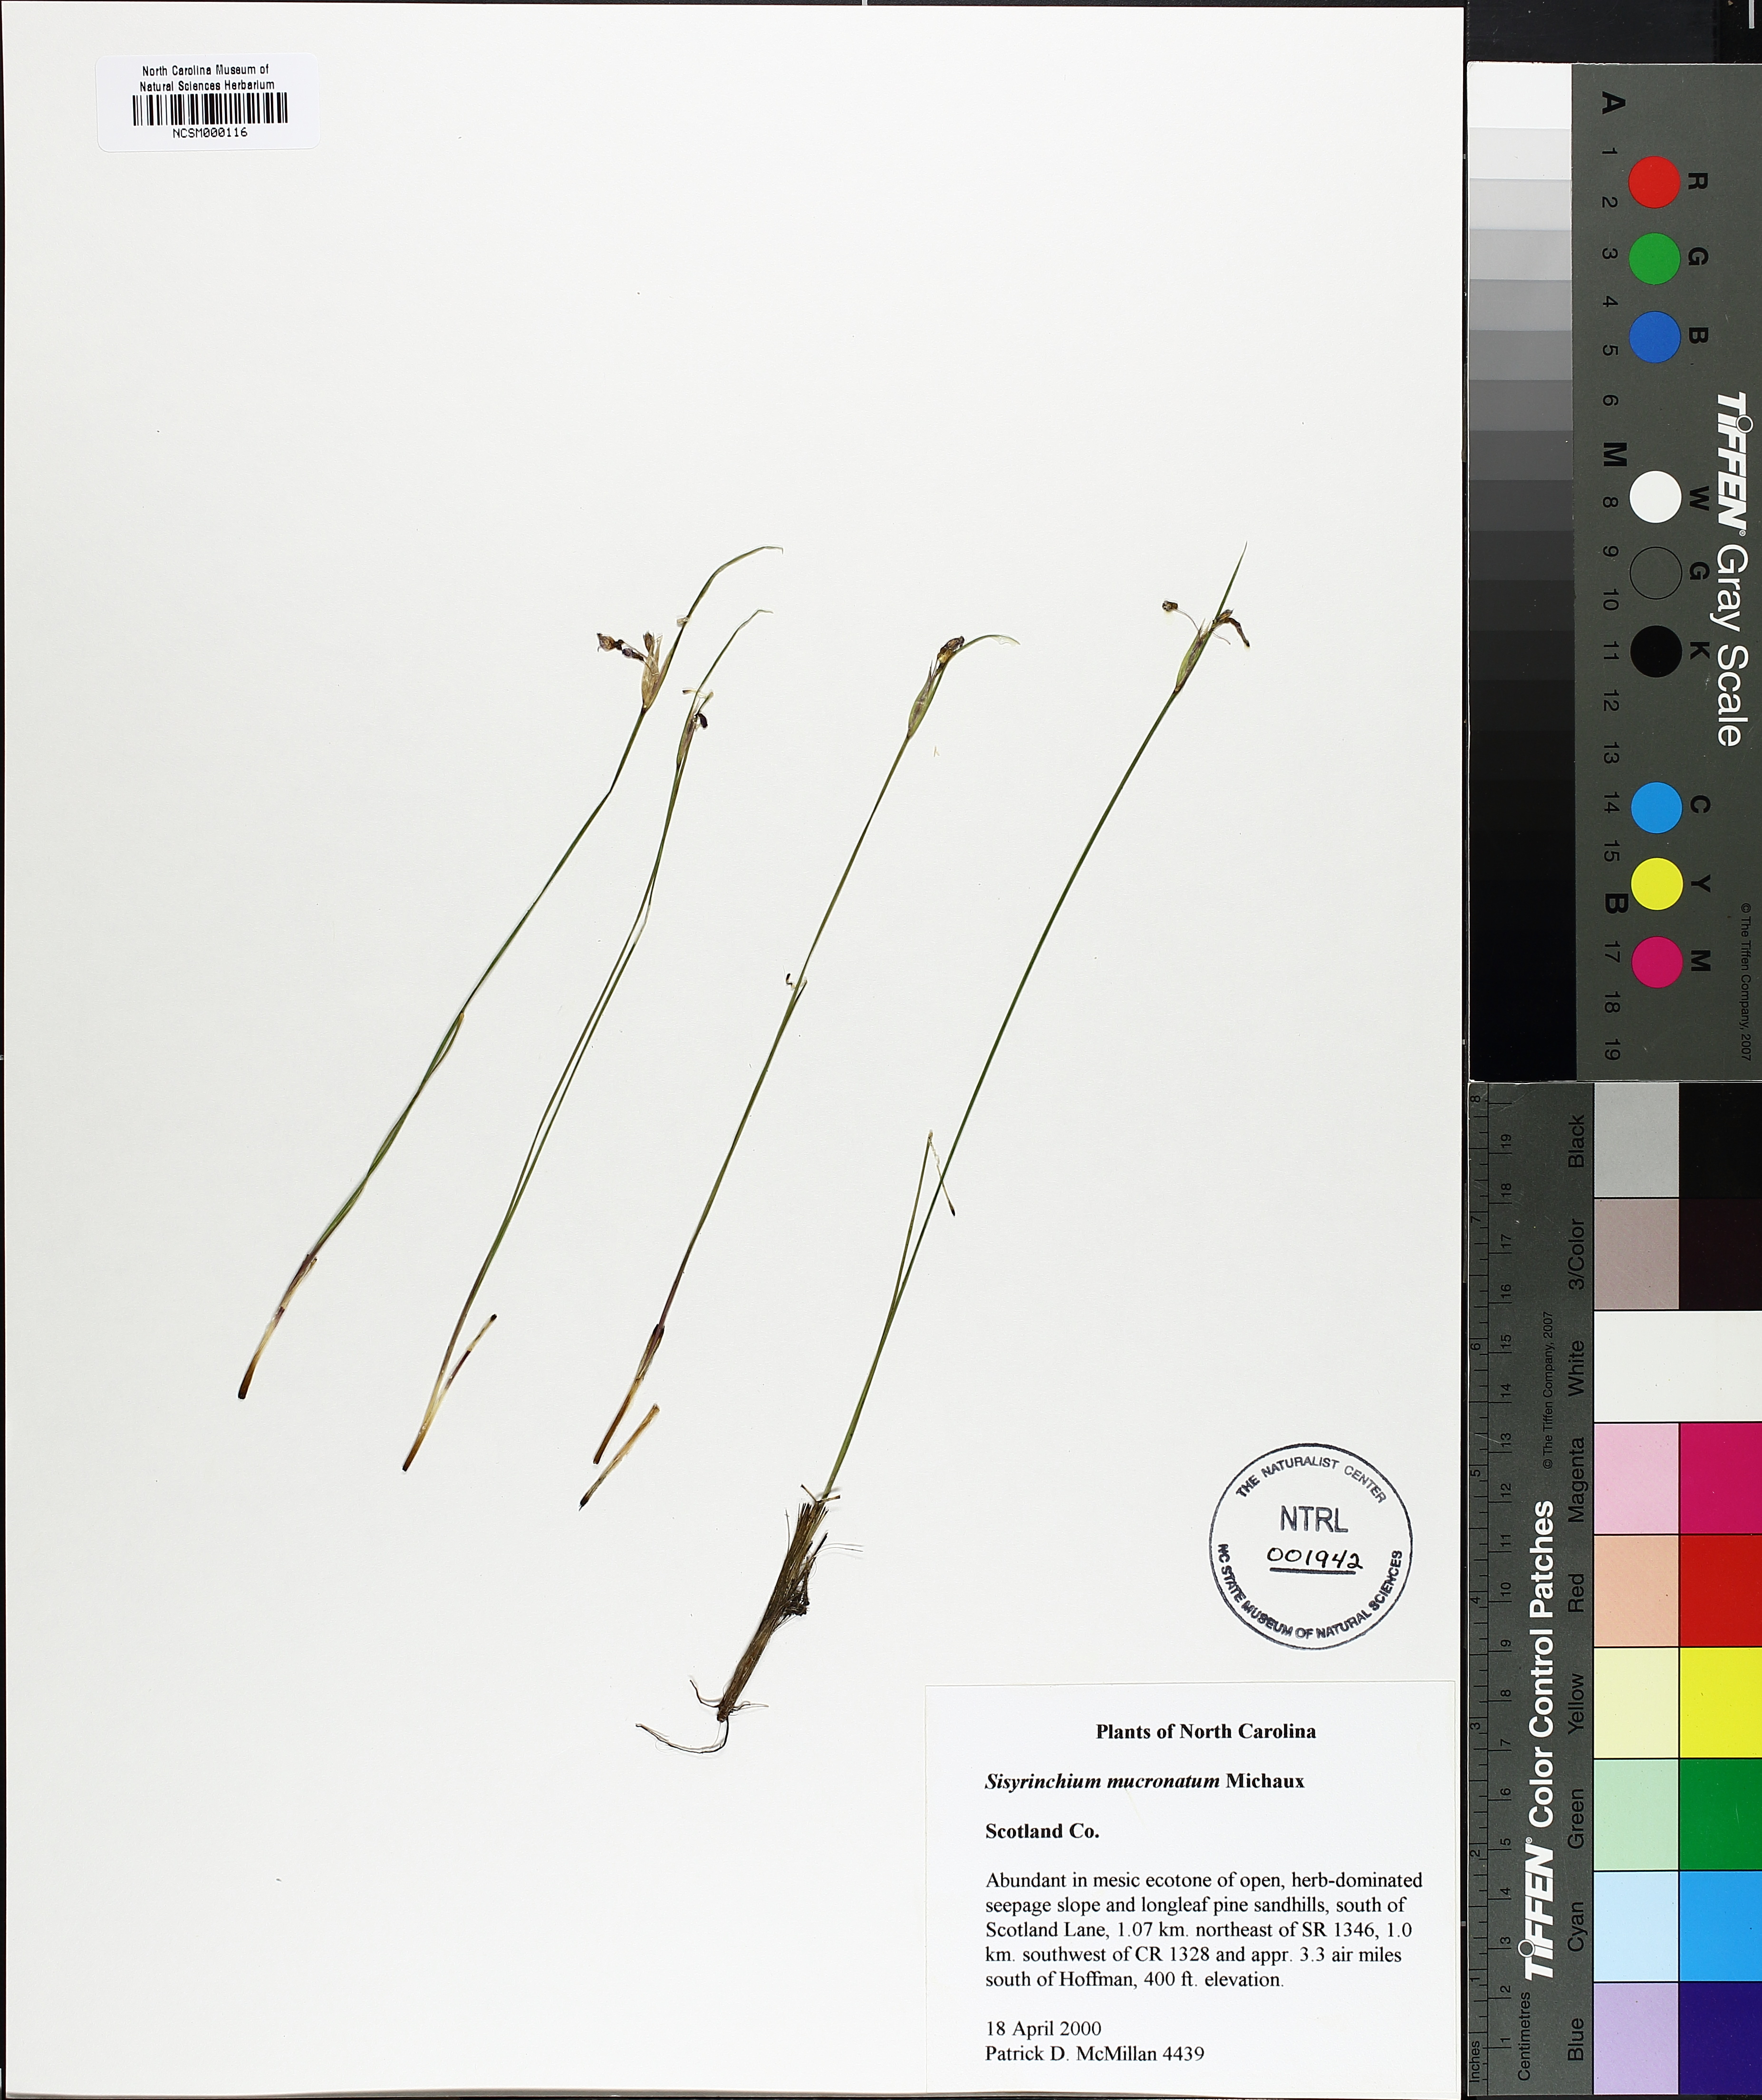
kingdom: Plantae
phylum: Tracheophyta
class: Liliopsida
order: Asparagales
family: Iridaceae
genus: Sisyrinchium
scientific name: Sisyrinchium mucronatum
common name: Eastern blue-eyed-grass
